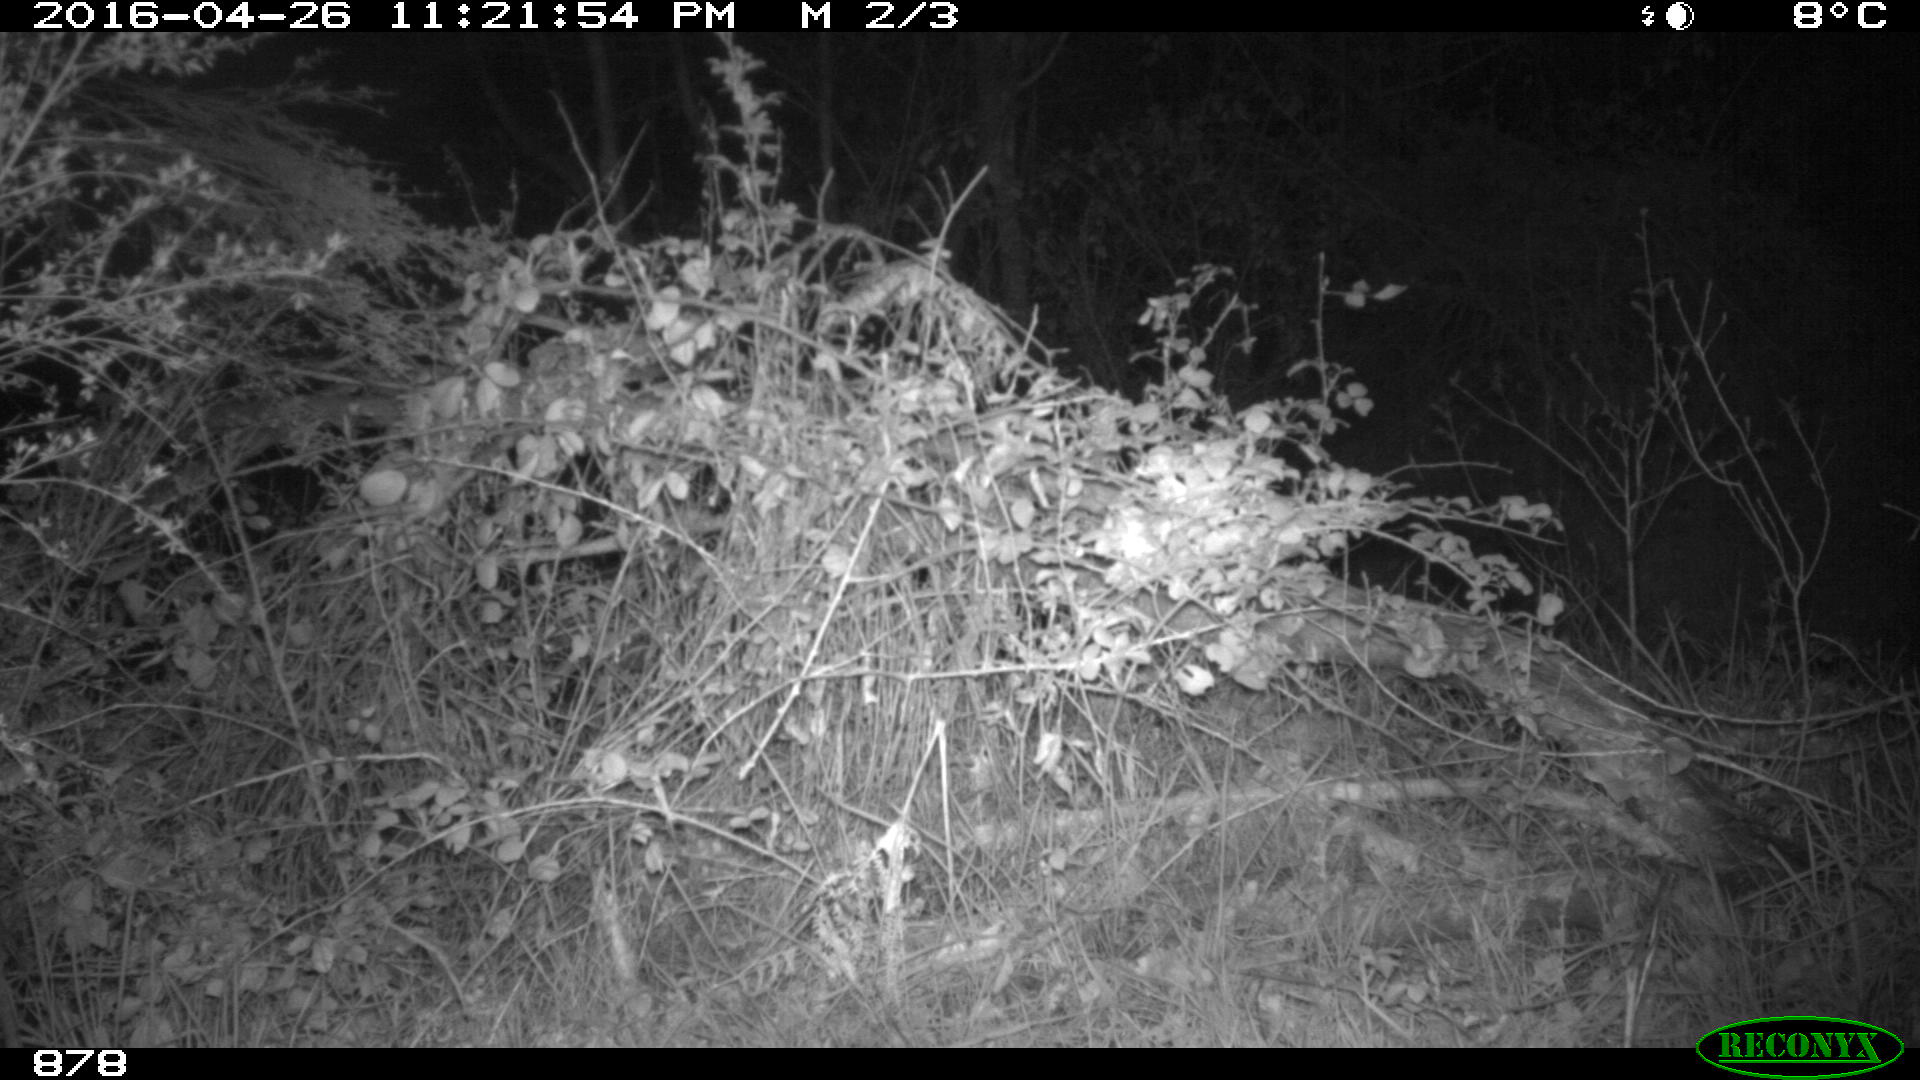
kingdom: Animalia
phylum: Chordata
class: Mammalia
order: Carnivora
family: Canidae
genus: Vulpes
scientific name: Vulpes vulpes
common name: Red fox
